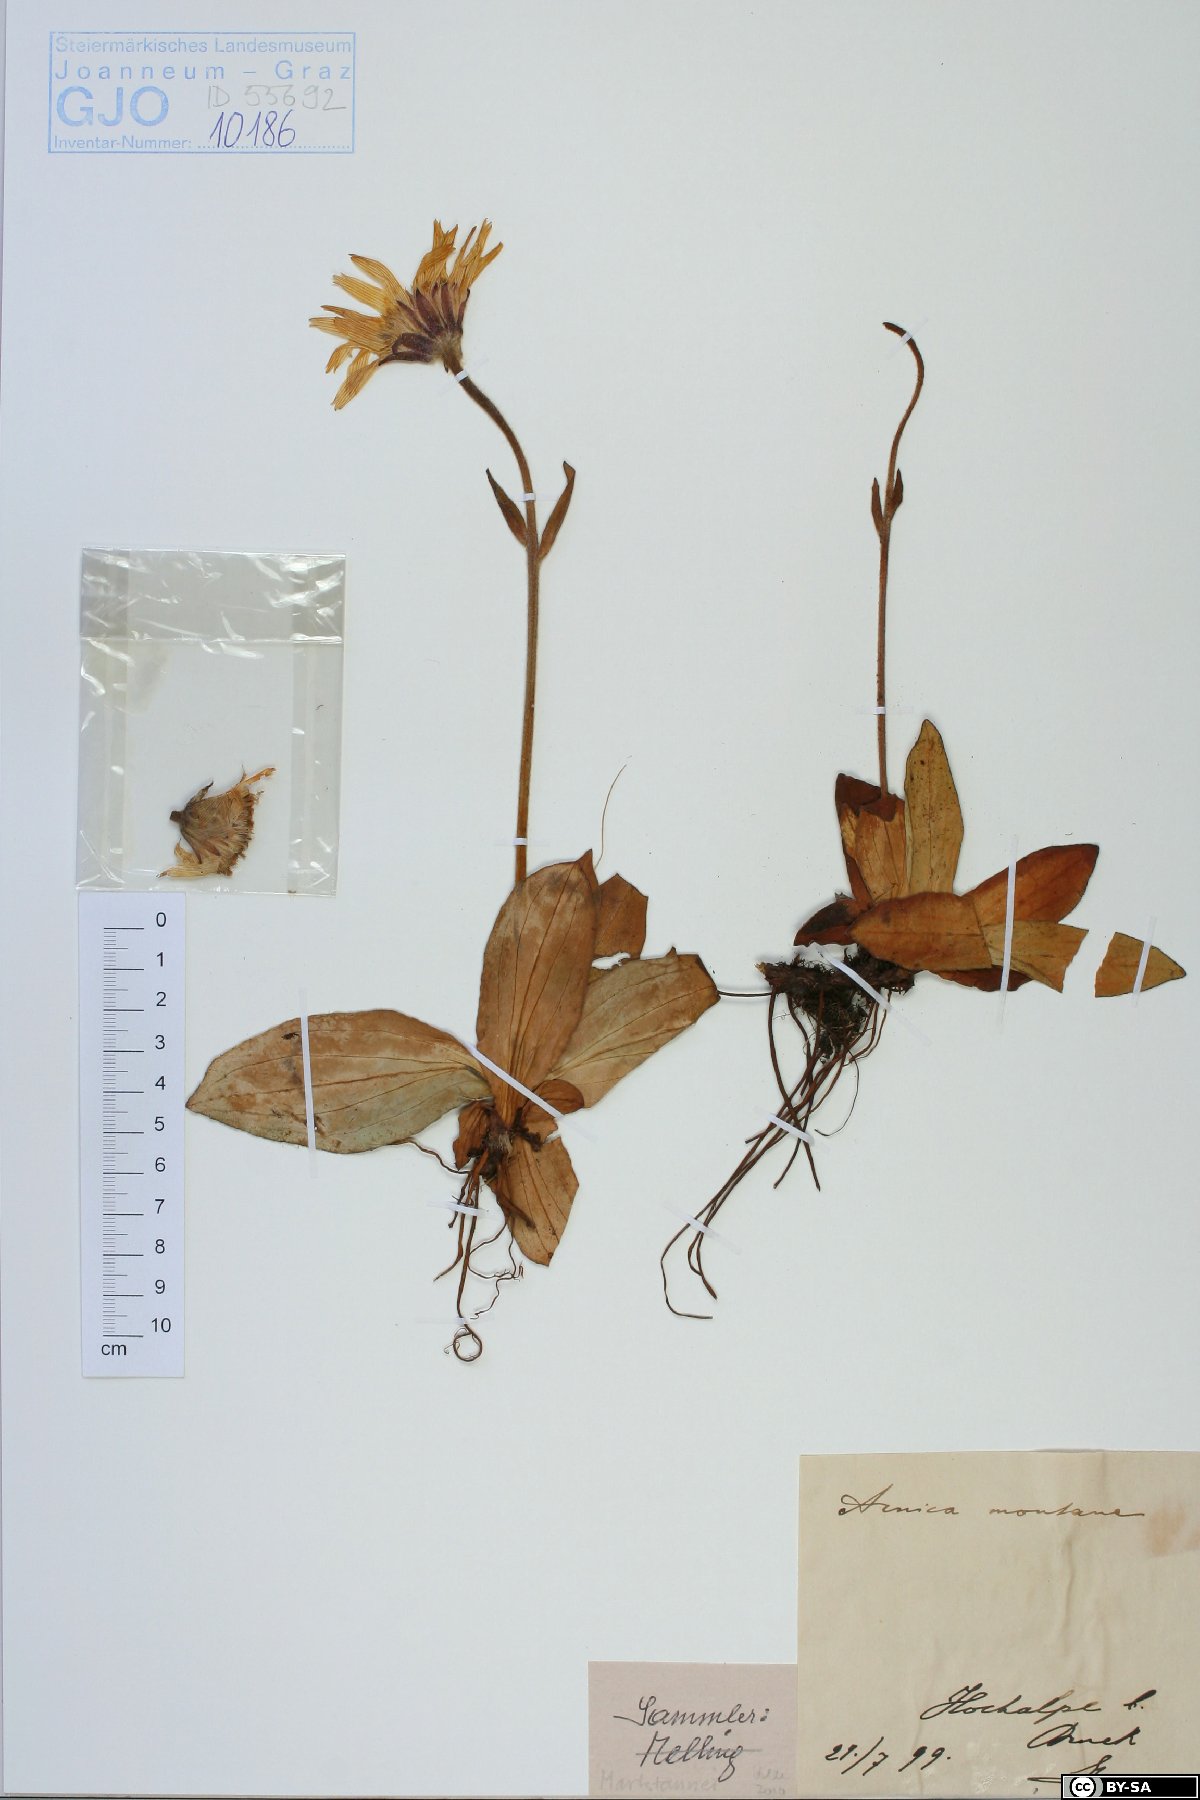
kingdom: Plantae
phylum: Tracheophyta
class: Magnoliopsida
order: Asterales
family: Asteraceae
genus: Arnica
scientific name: Arnica montana
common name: Leopard's bane
